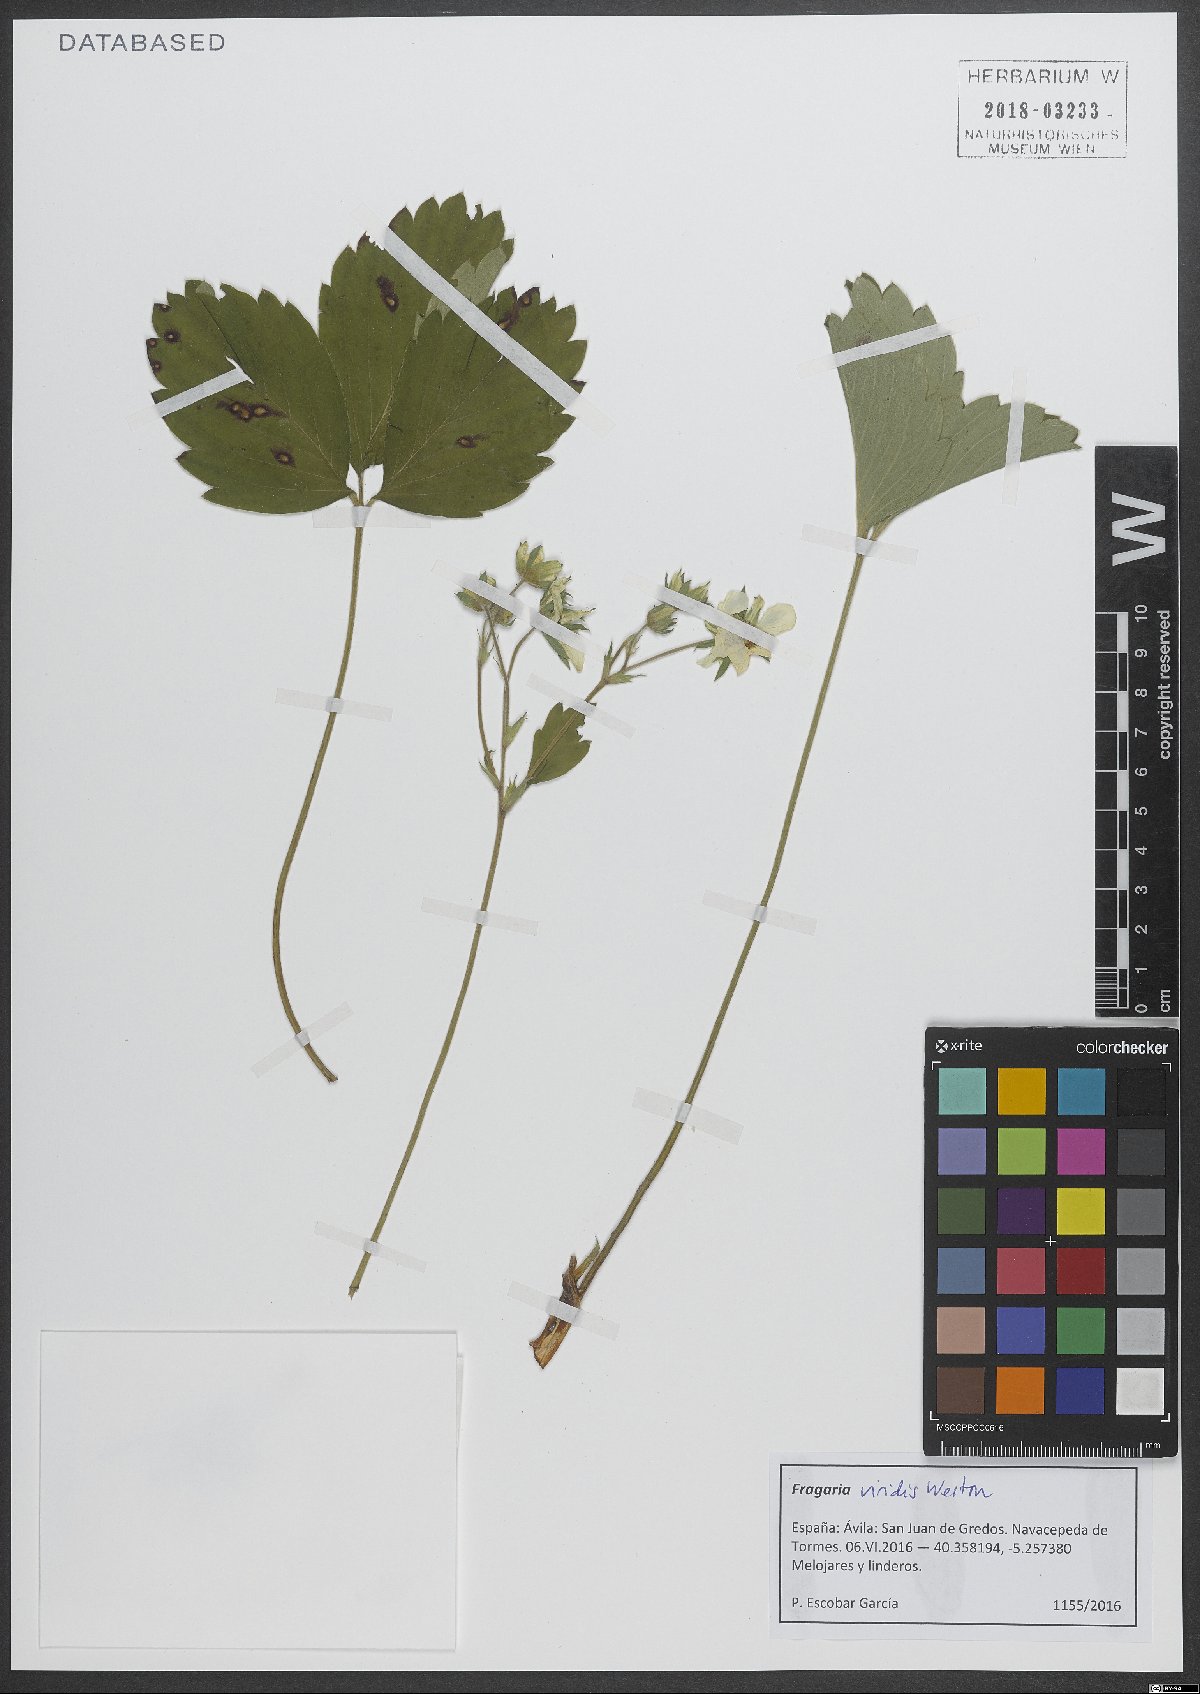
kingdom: Plantae
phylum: Tracheophyta
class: Magnoliopsida
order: Rosales
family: Rosaceae
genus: Fragaria
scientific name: Fragaria viridis
